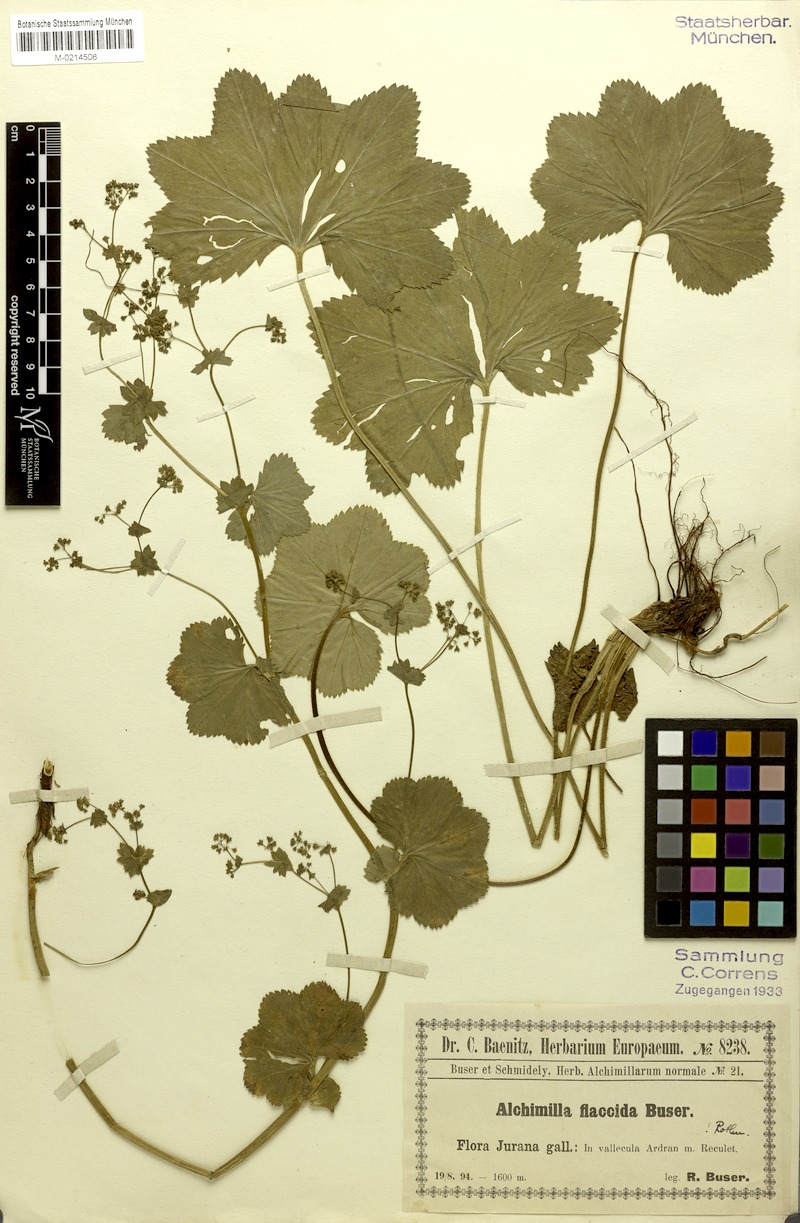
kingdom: Plantae
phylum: Tracheophyta
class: Magnoliopsida
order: Rosales
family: Rosaceae
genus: Alchemilla
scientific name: Alchemilla heteropoda
